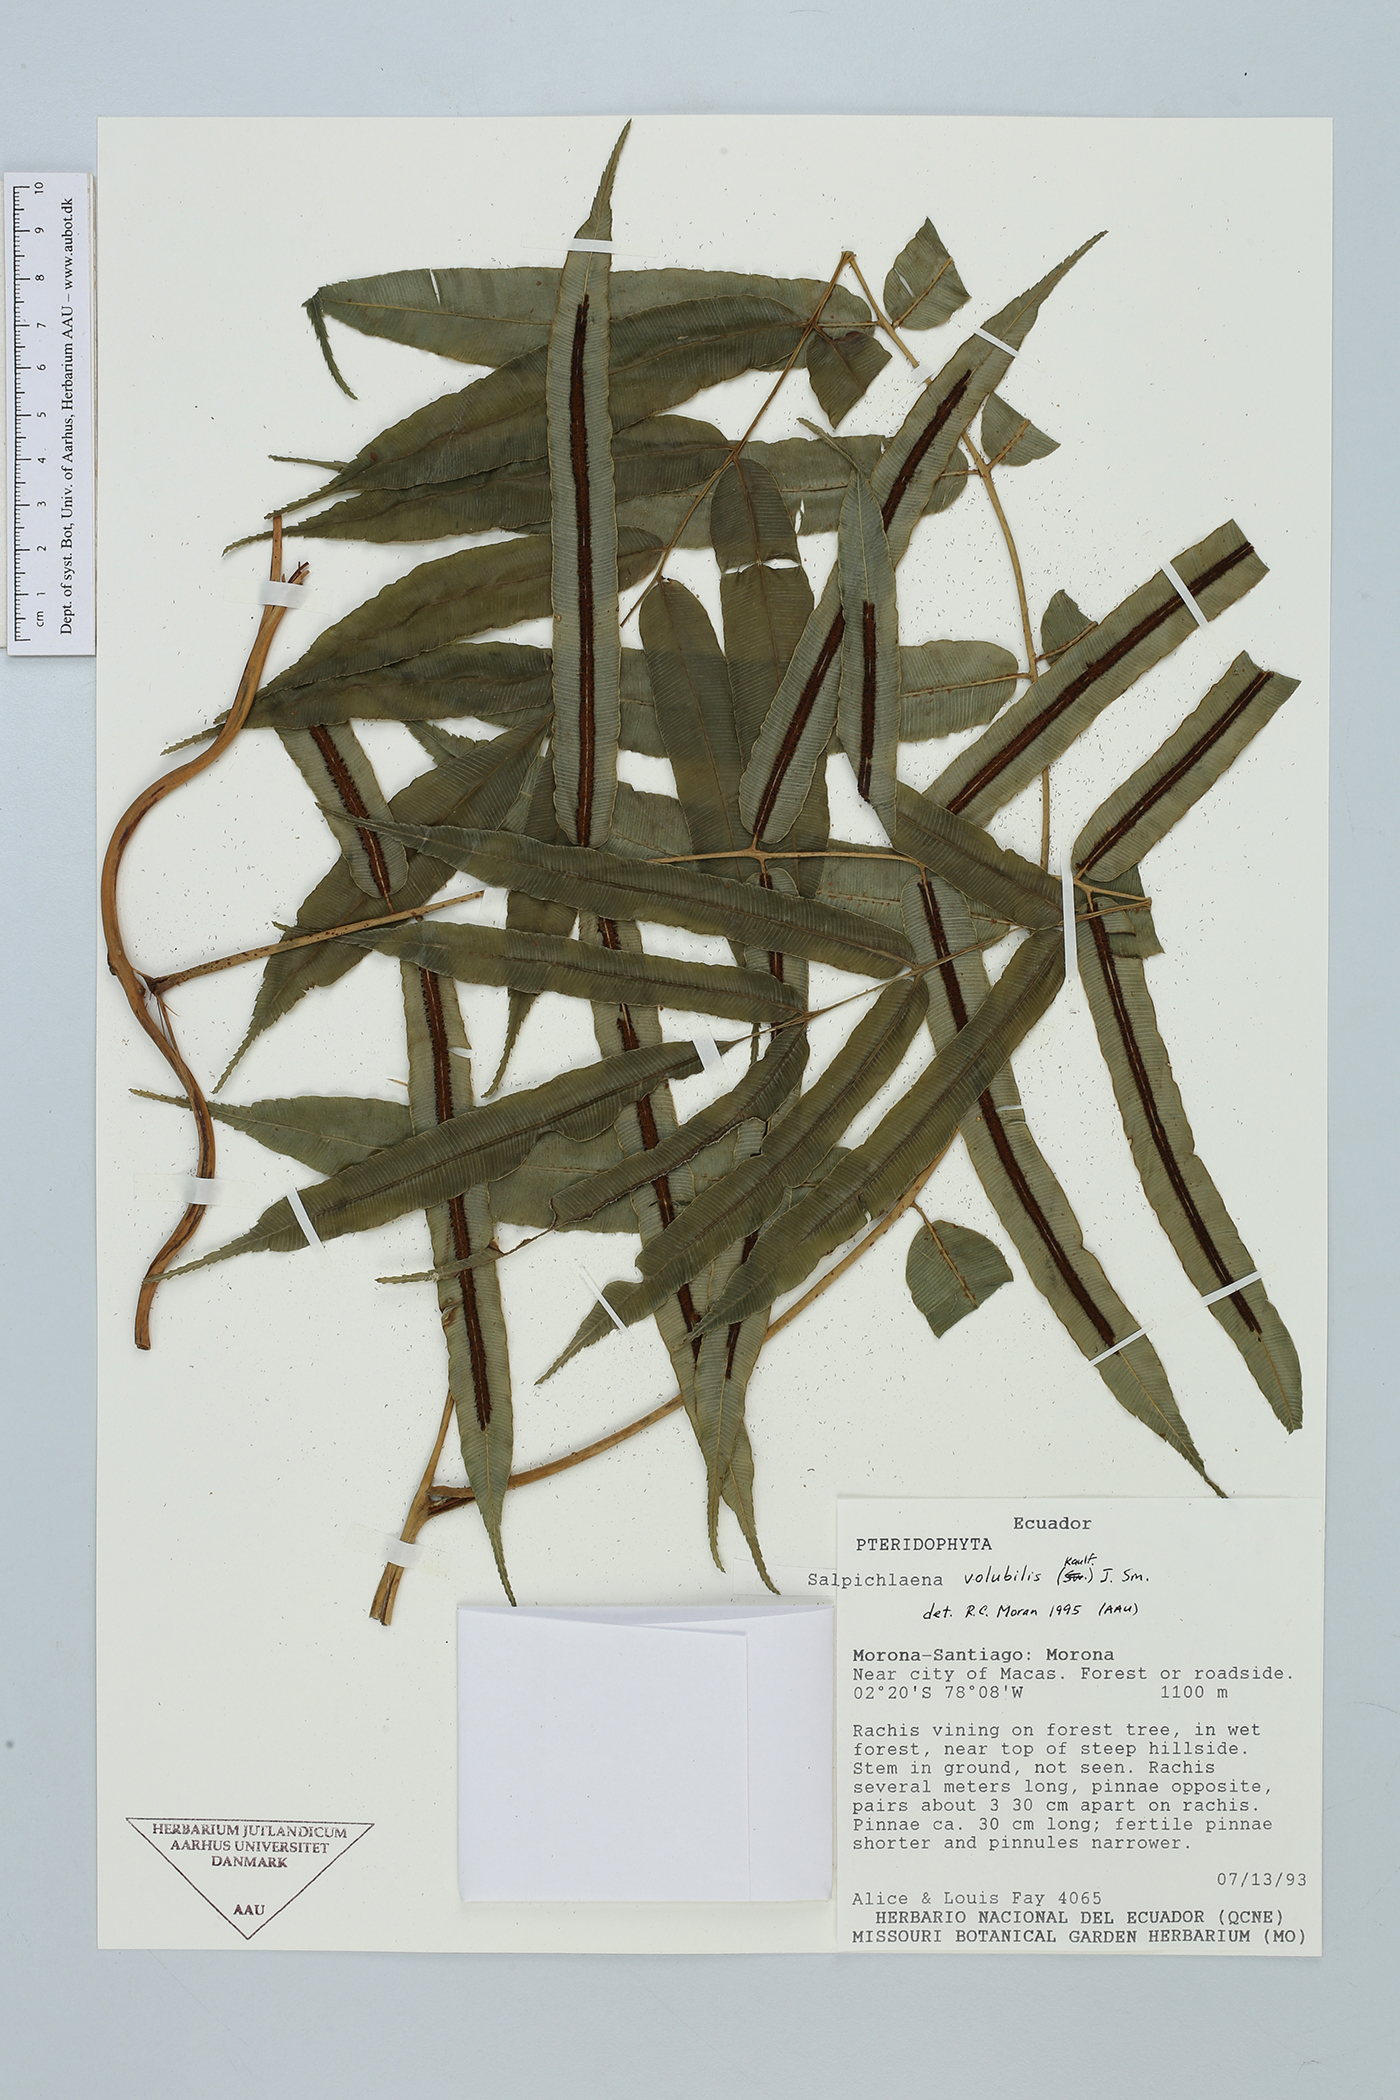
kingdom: Plantae
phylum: Tracheophyta
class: Polypodiopsida
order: Polypodiales
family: Blechnaceae
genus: Salpichlaena
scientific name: Salpichlaena volubilis
